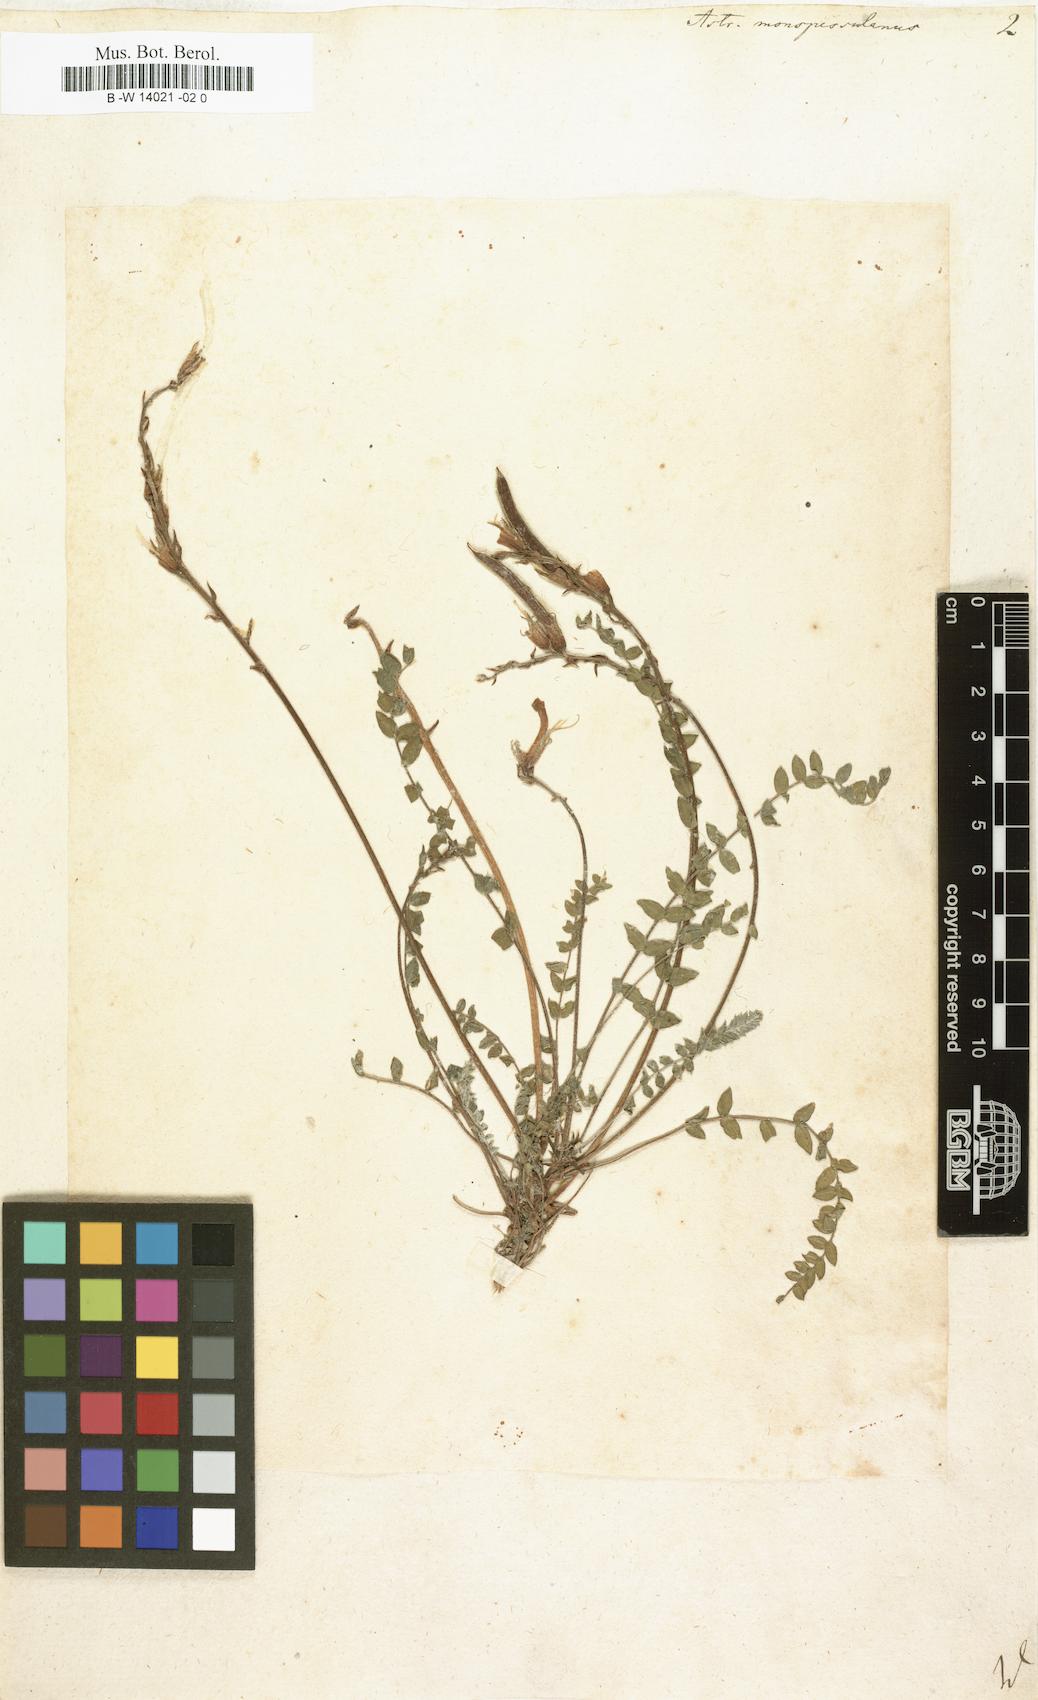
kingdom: Plantae
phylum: Tracheophyta
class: Magnoliopsida
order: Fabales
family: Fabaceae
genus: Astragalus
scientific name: Astragalus monspessulanus
